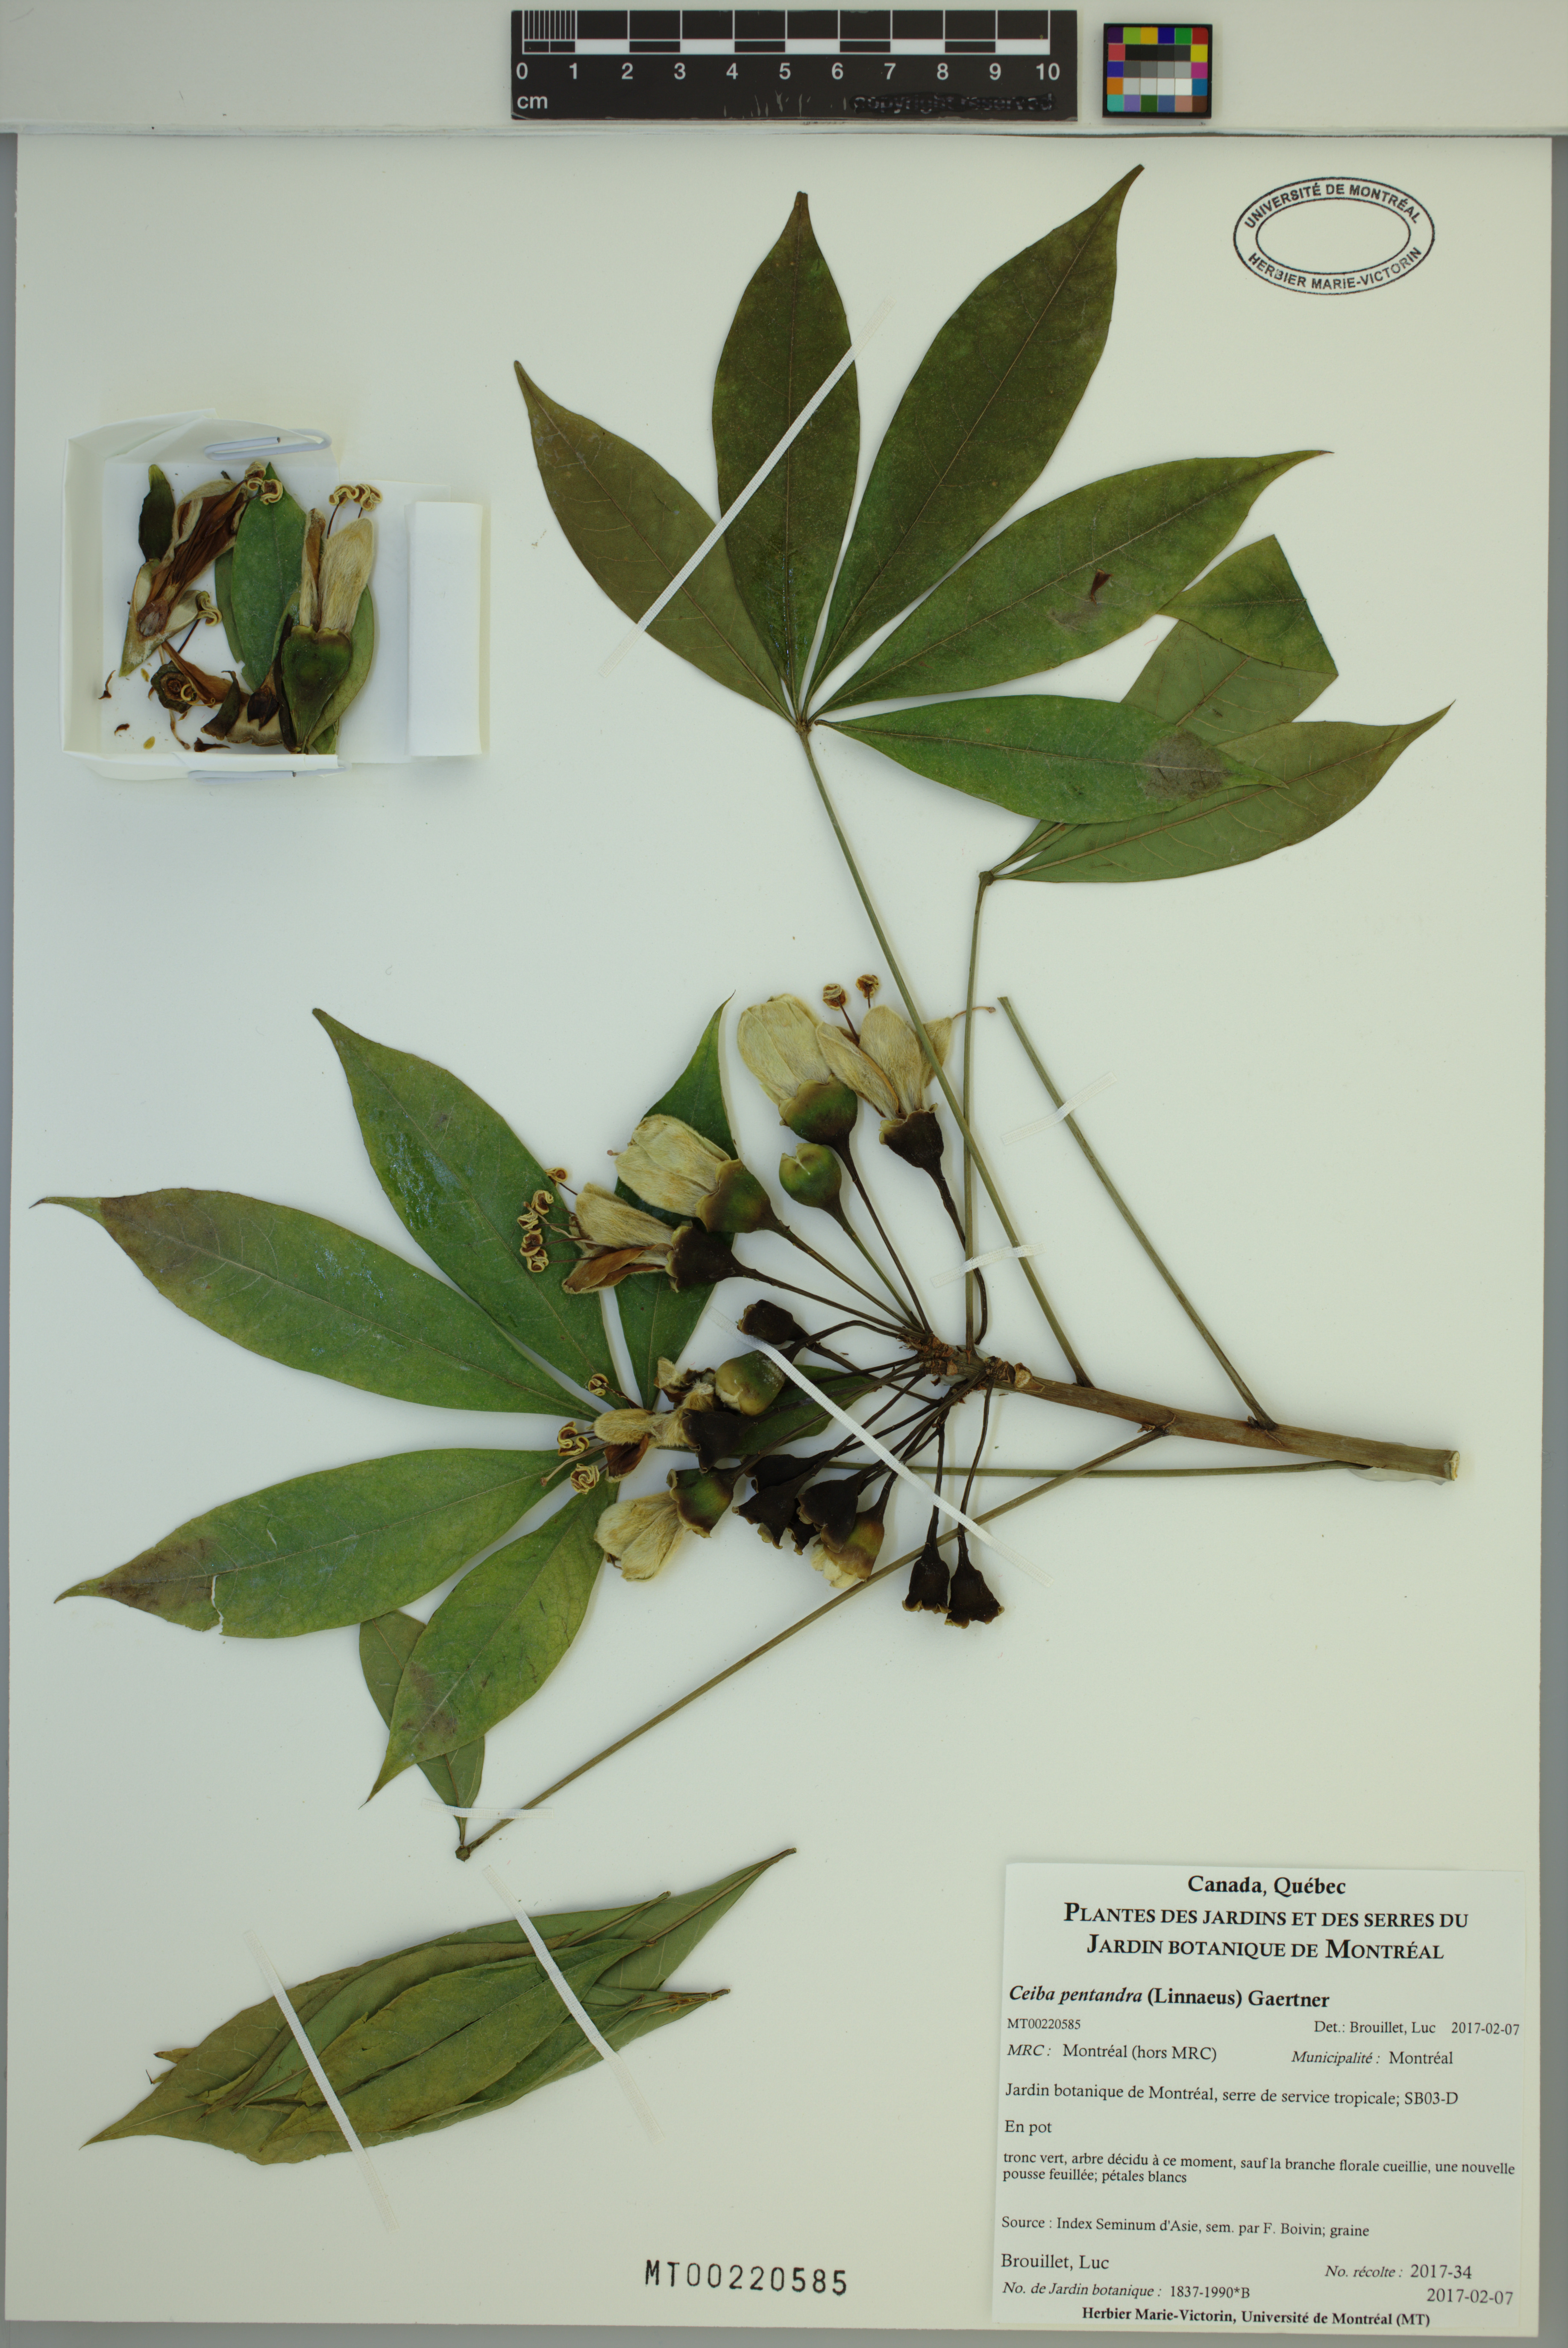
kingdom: Plantae
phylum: Tracheophyta
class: Magnoliopsida
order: Malvales
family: Malvaceae
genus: Ceiba
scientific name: Ceiba pentandra
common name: Kapok
